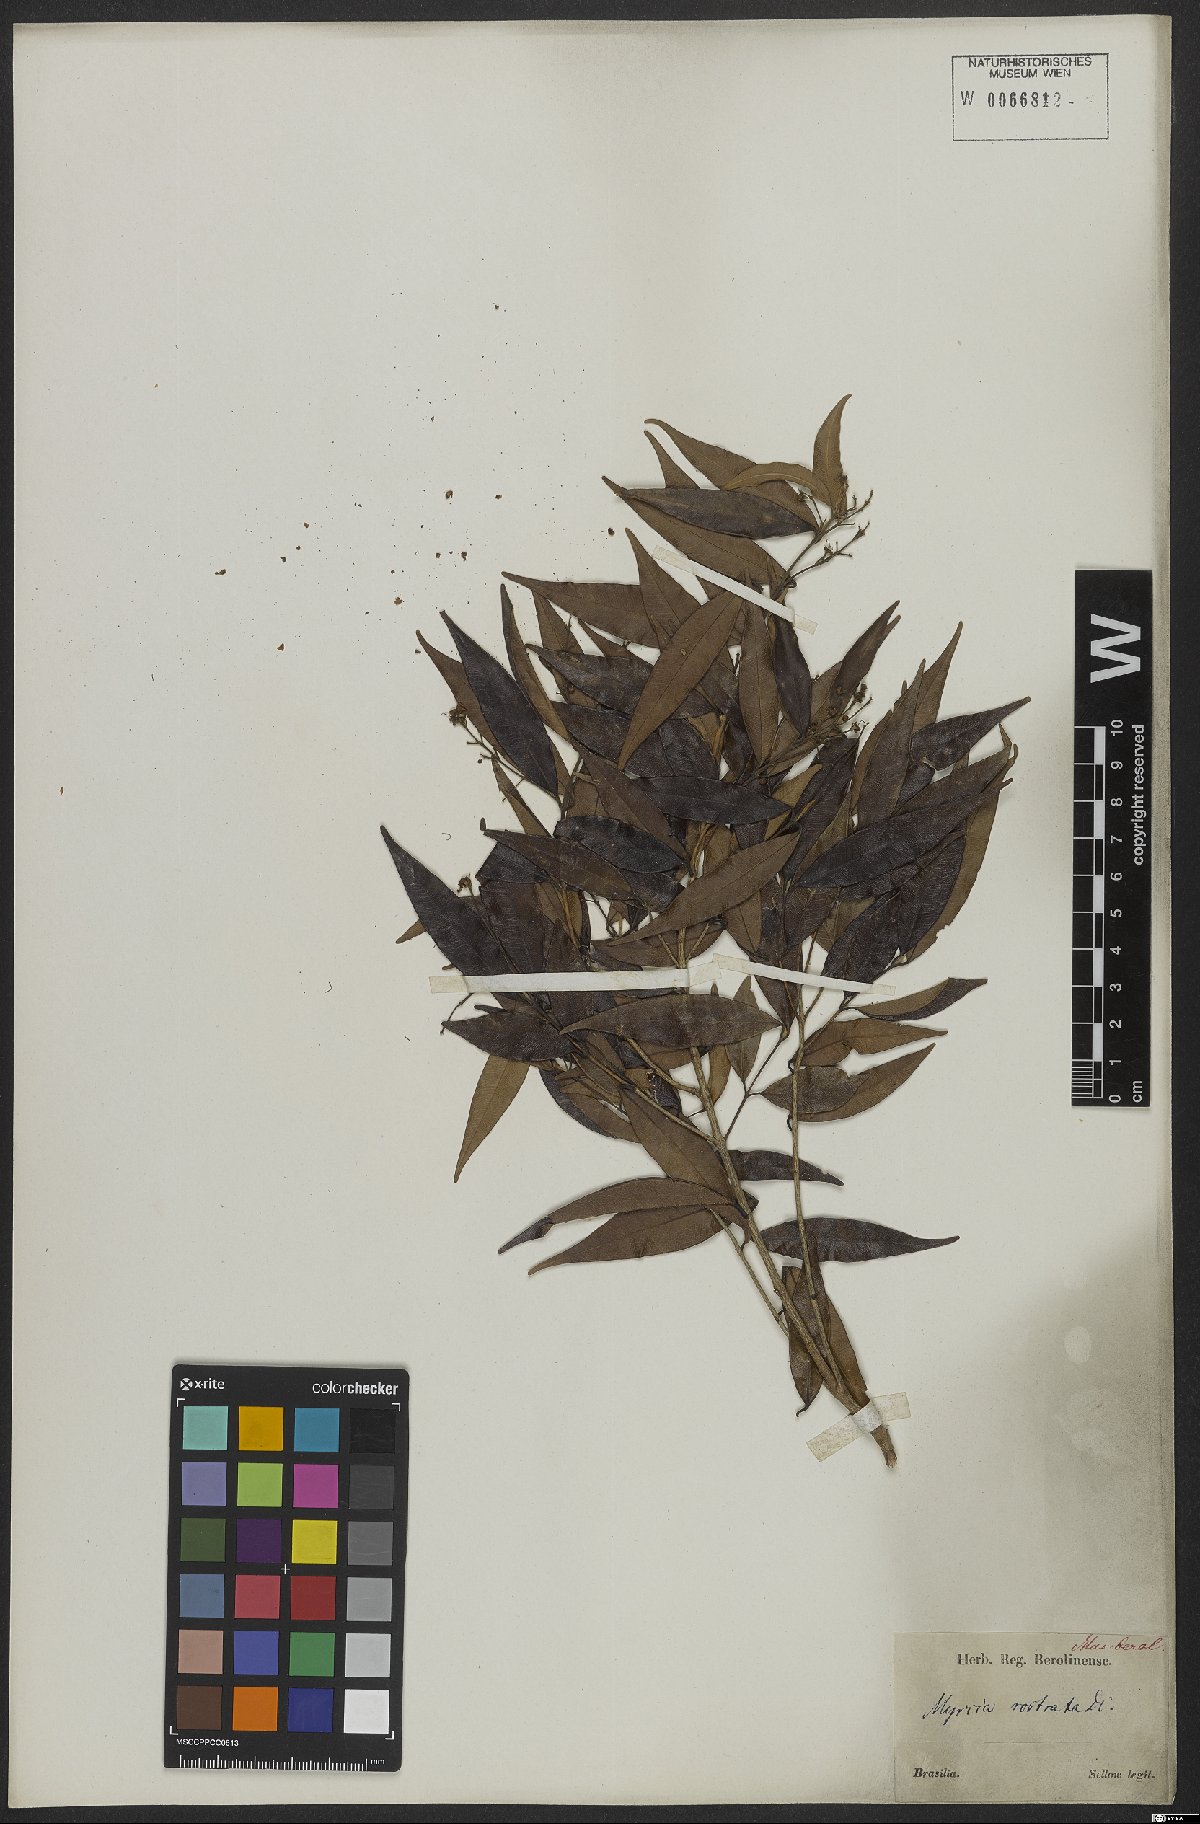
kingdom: Plantae
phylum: Tracheophyta
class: Magnoliopsida
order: Myrtales
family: Myrtaceae
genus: Myrcia
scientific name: Myrcia splendens
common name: Surinam cherry
